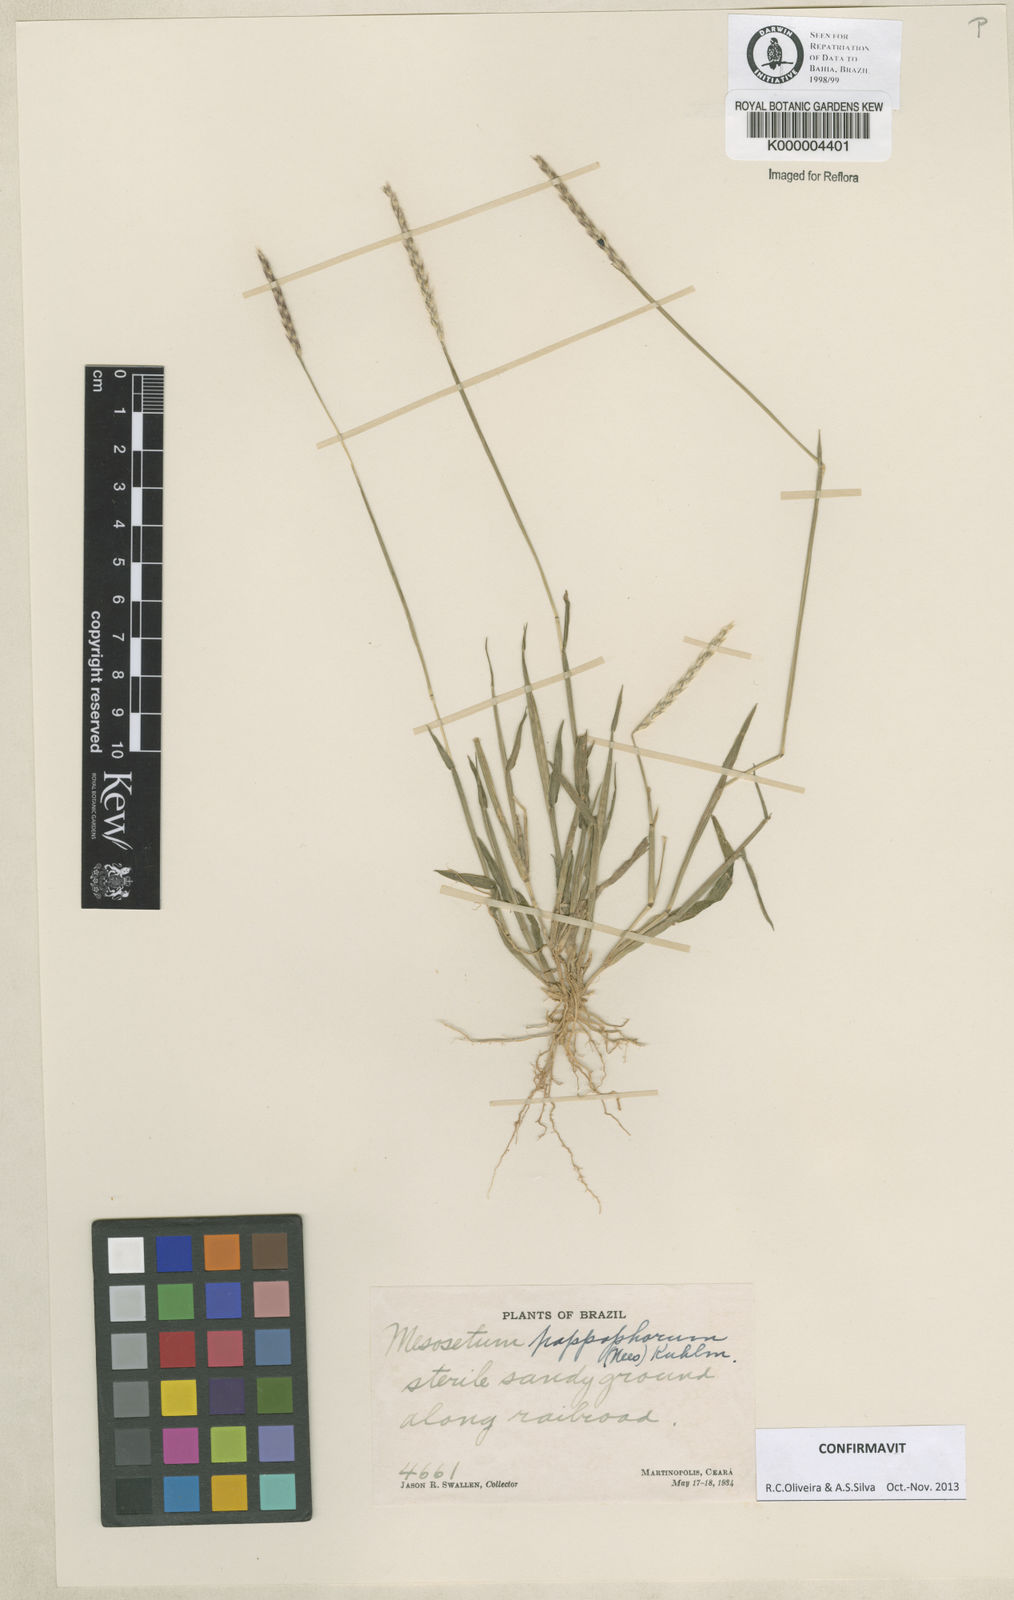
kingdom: Plantae
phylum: Tracheophyta
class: Liliopsida
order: Poales
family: Poaceae
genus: Mesosetum
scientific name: Mesosetum pappophorum
